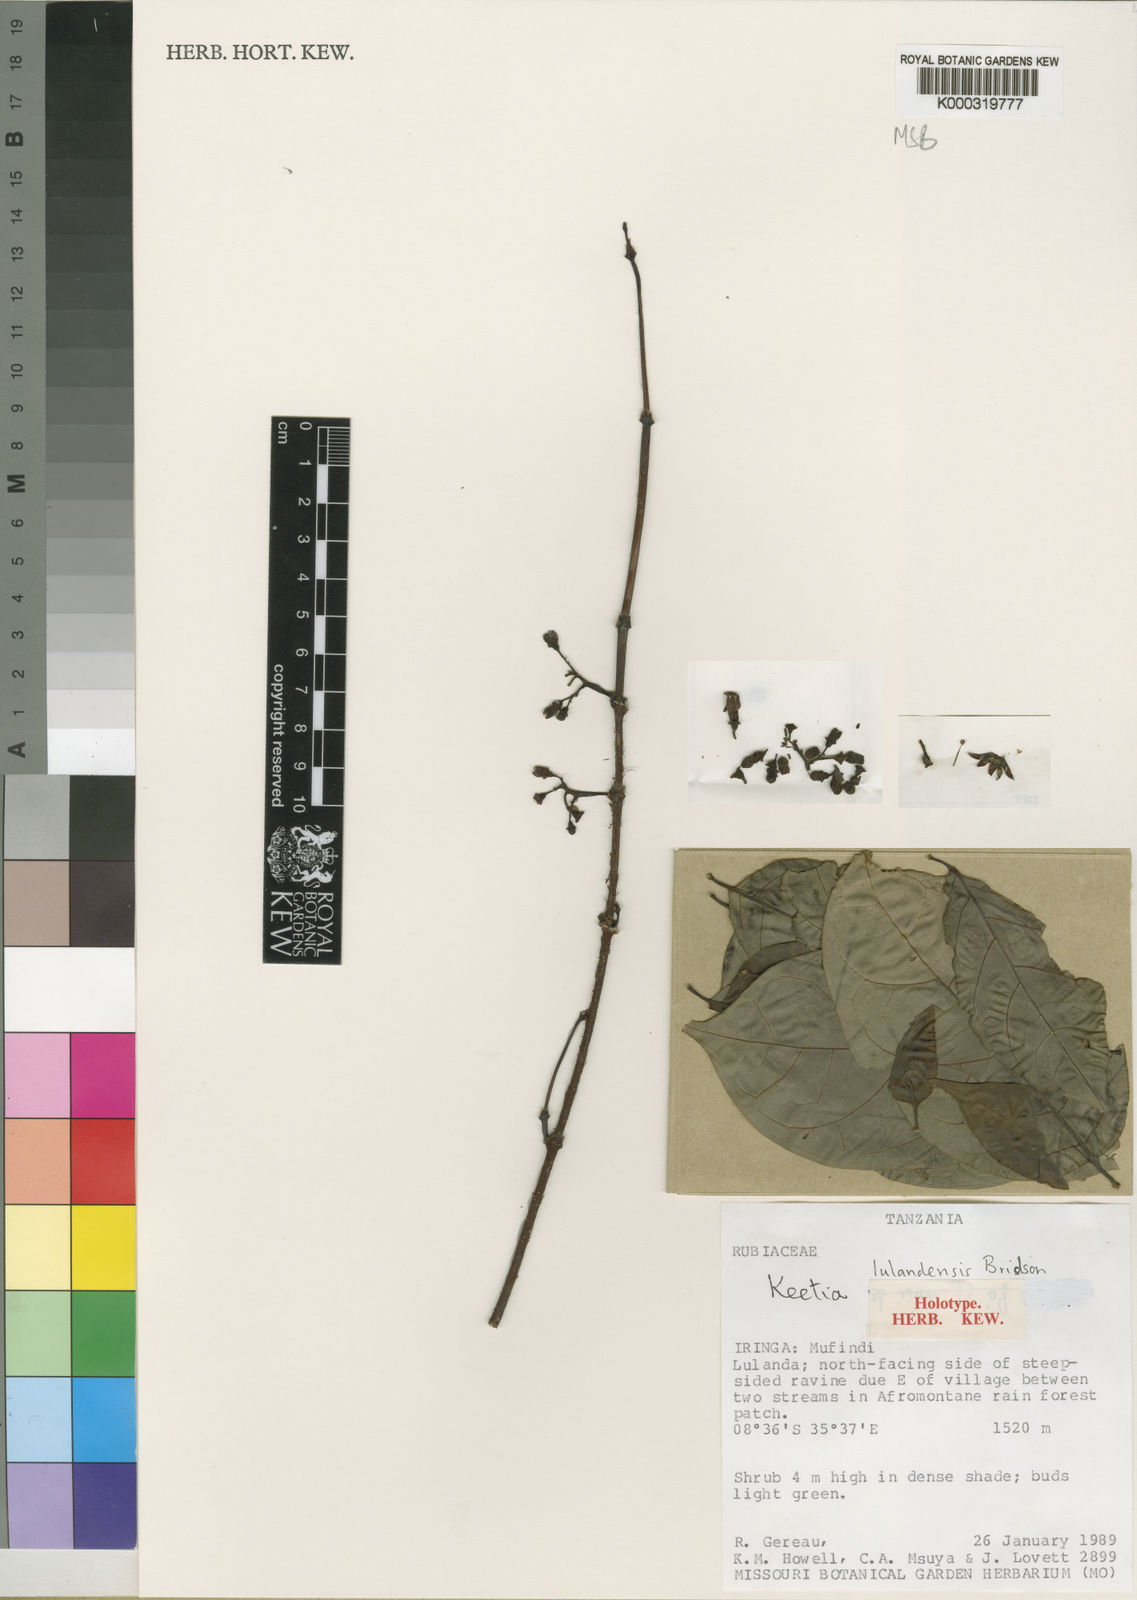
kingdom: Plantae
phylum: Tracheophyta
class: Magnoliopsida
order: Gentianales
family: Rubiaceae
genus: Keetia
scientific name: Keetia lulandensis
